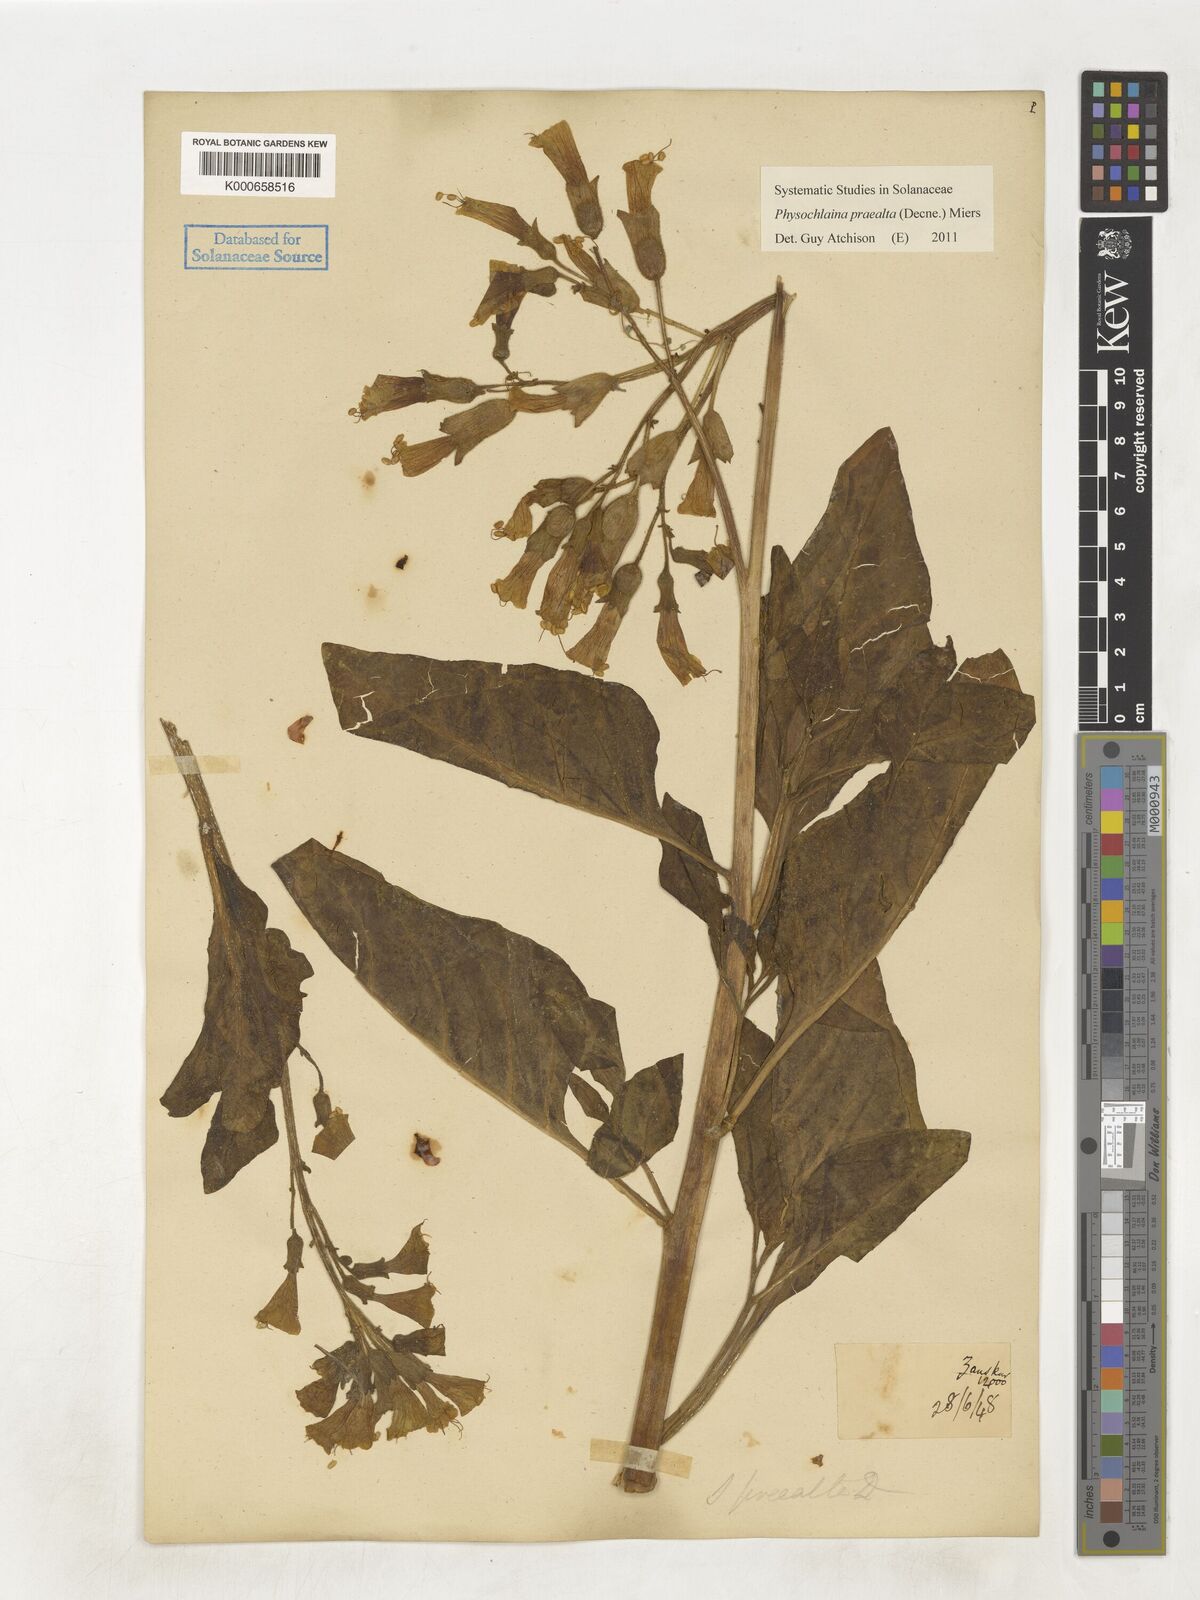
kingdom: Plantae
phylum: Tracheophyta
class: Magnoliopsida
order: Solanales
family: Solanaceae
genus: Physochlaina
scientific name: Physochlaina praealta
